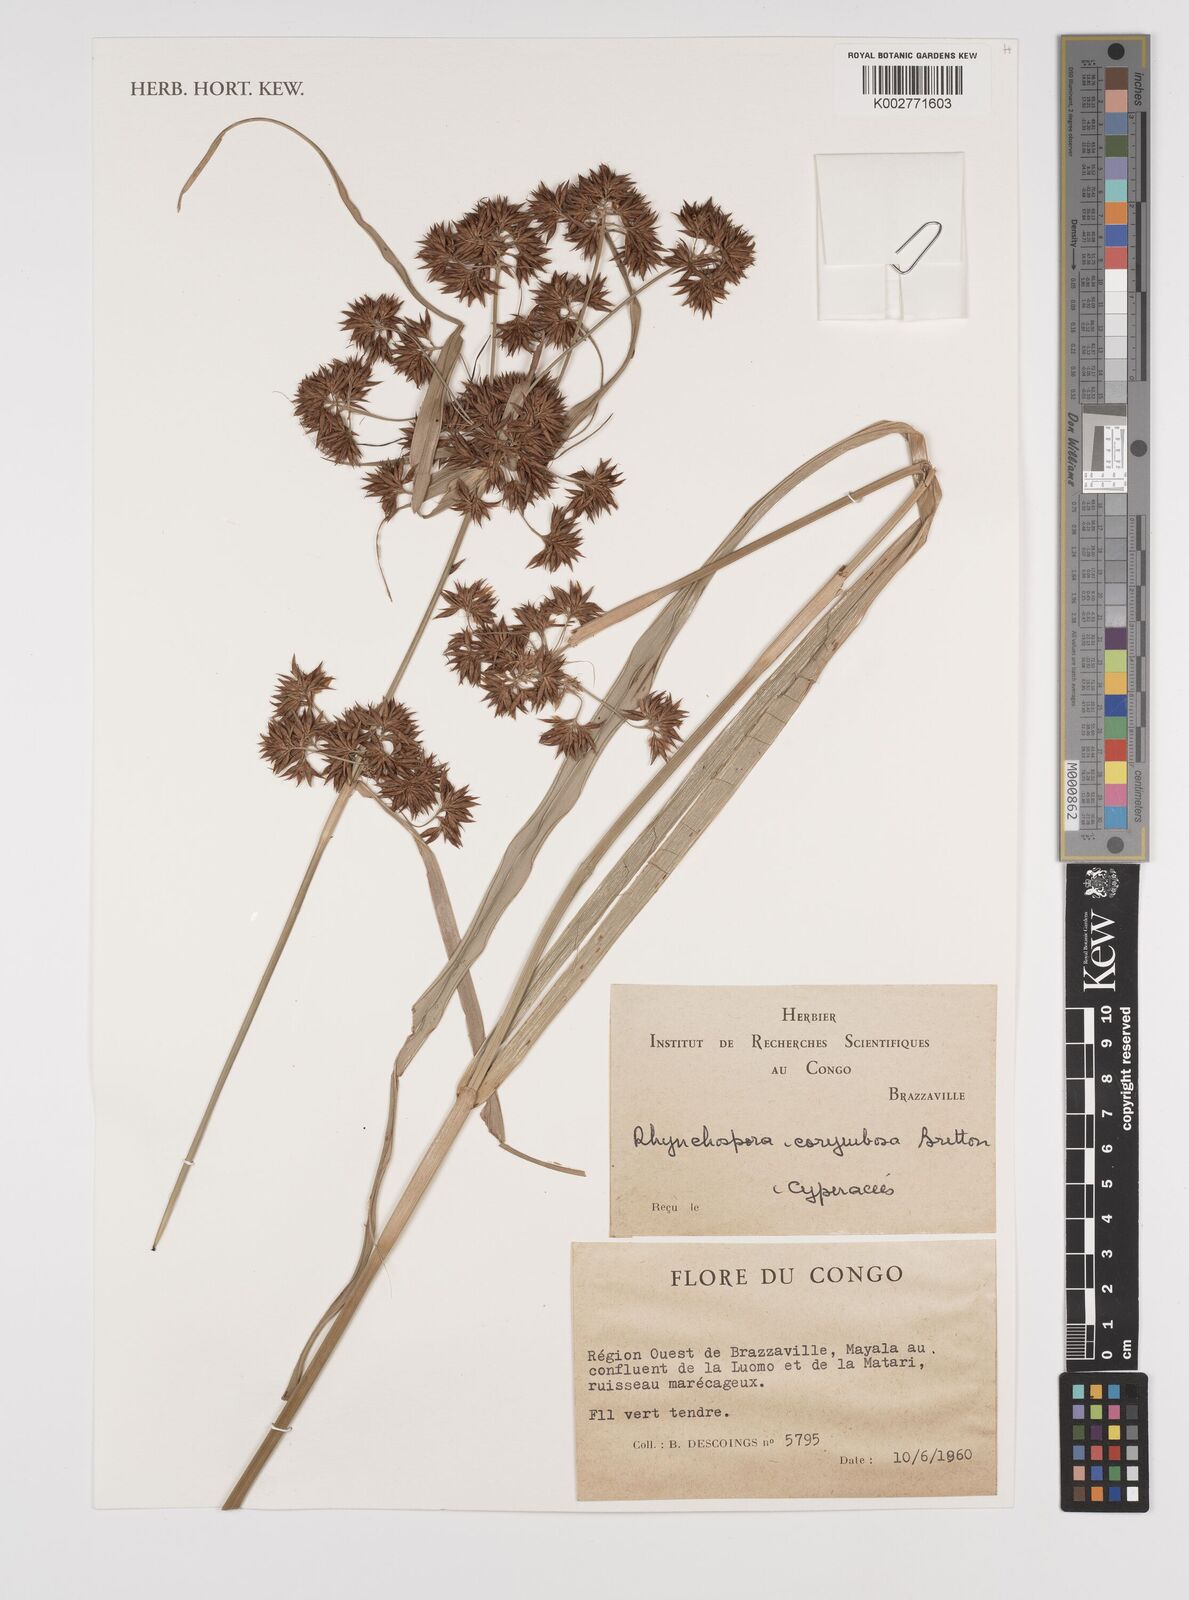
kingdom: Plantae
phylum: Tracheophyta
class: Liliopsida
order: Poales
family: Cyperaceae
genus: Rhynchospora
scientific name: Rhynchospora corymbosa
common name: Golden beak sedge
